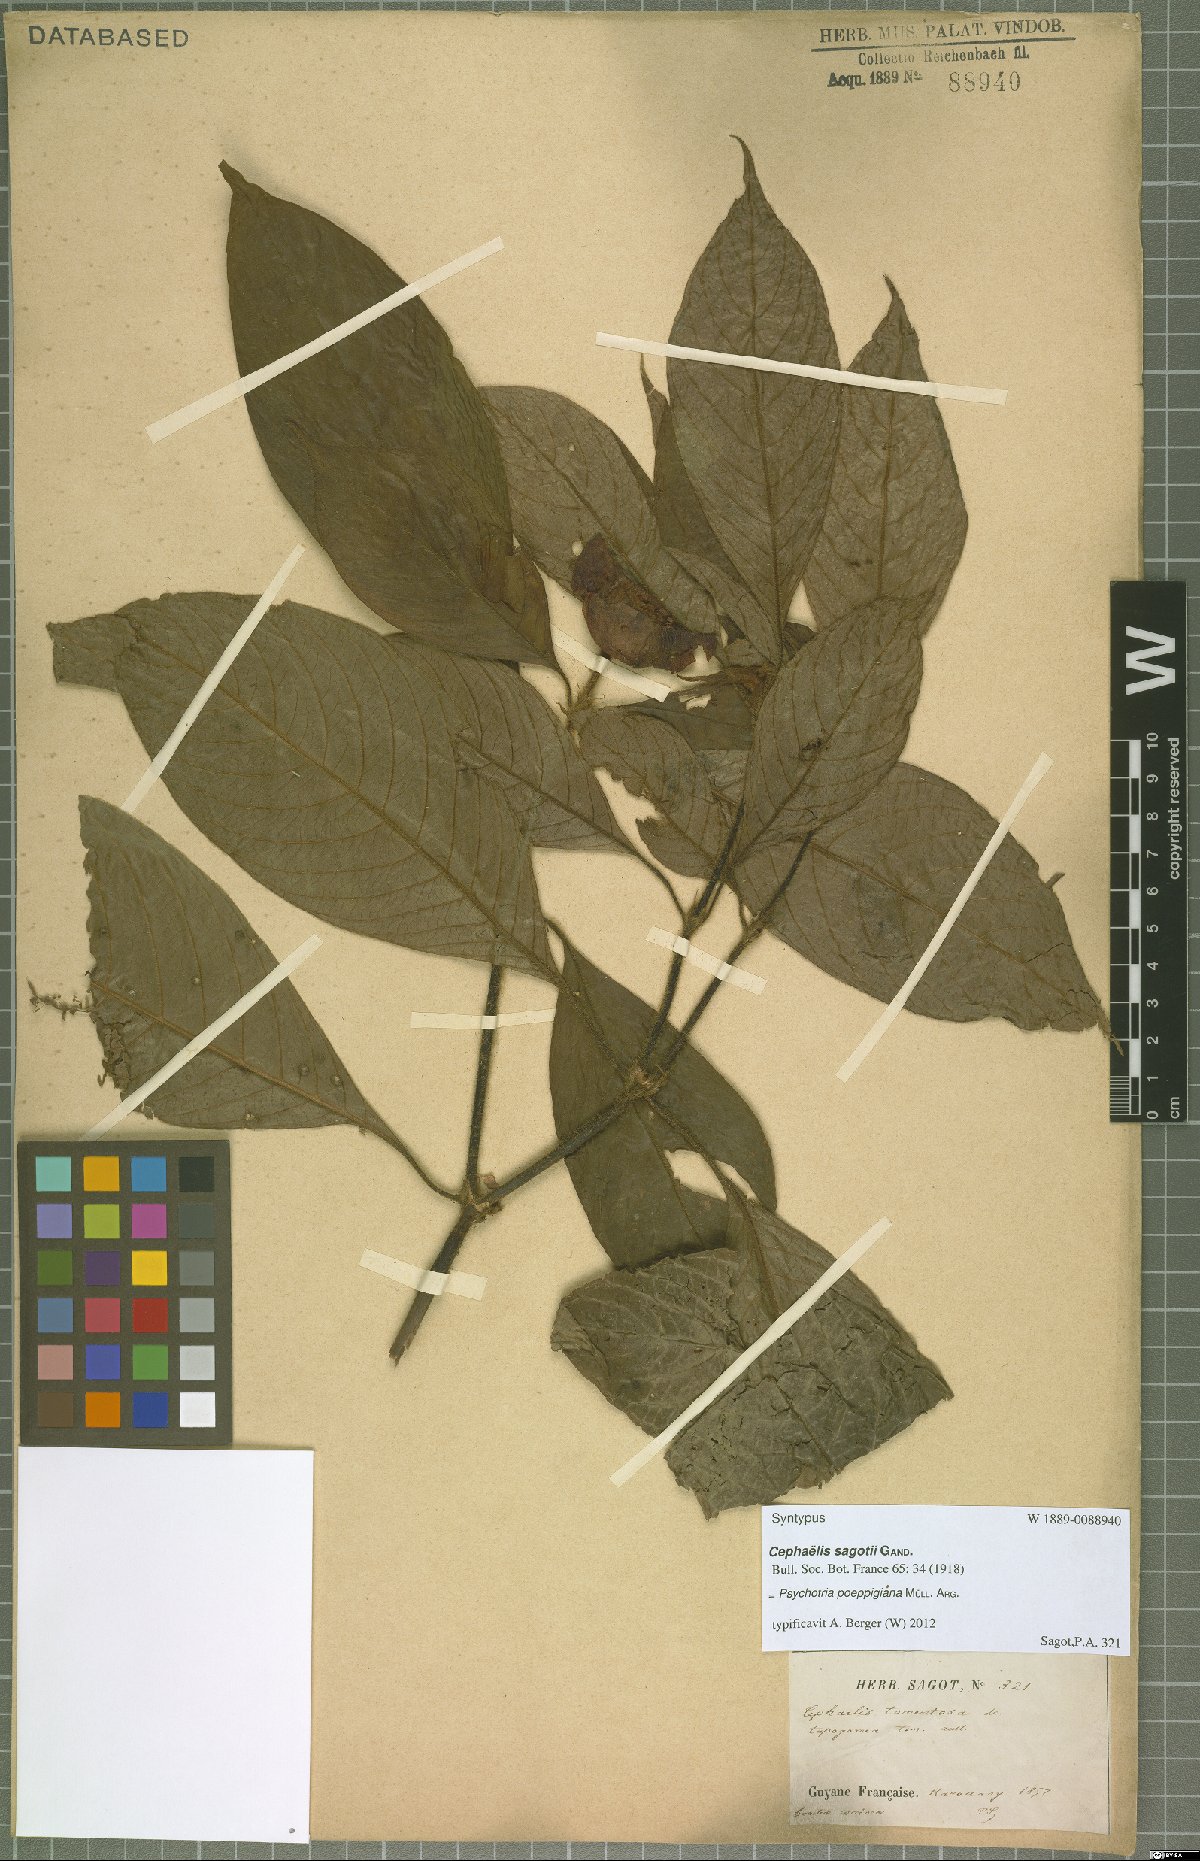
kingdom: Plantae
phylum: Tracheophyta
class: Magnoliopsida
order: Gentianales
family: Rubiaceae
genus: Palicourea
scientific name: Palicourea tomentosa
